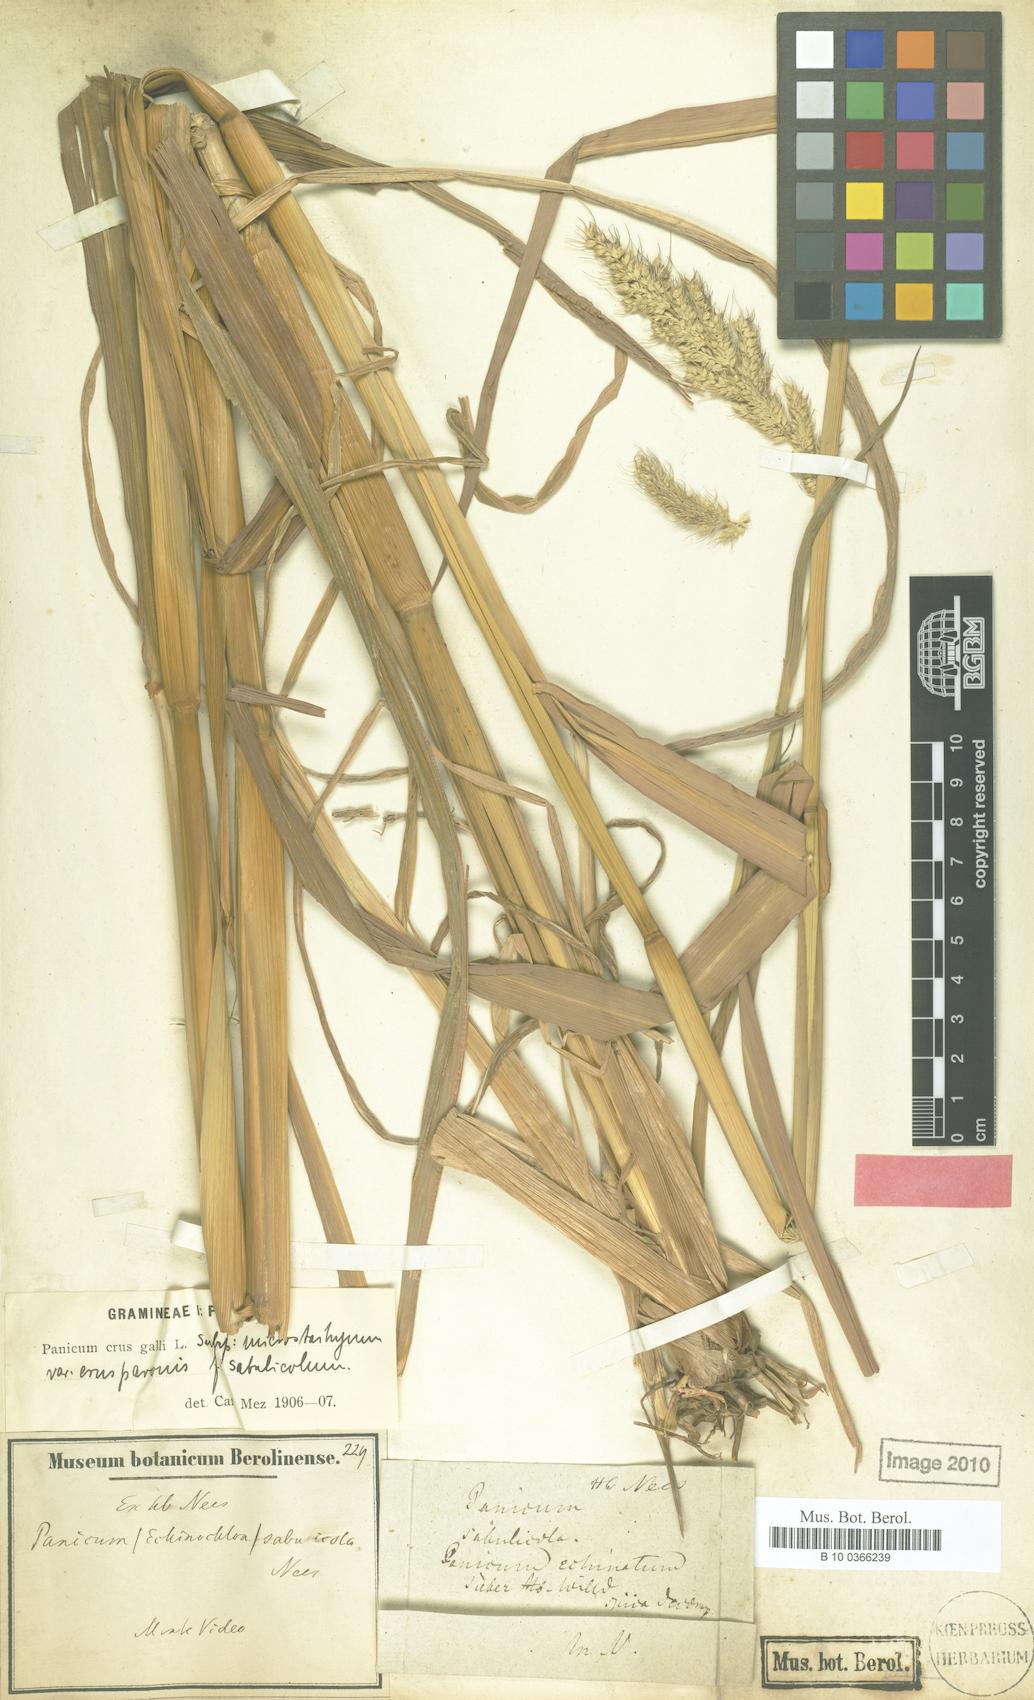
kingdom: Plantae
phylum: Tracheophyta
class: Liliopsida
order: Poales
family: Poaceae
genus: Echinochloa
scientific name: Echinochloa crus-pavonis
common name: Gulf cockspur grass
